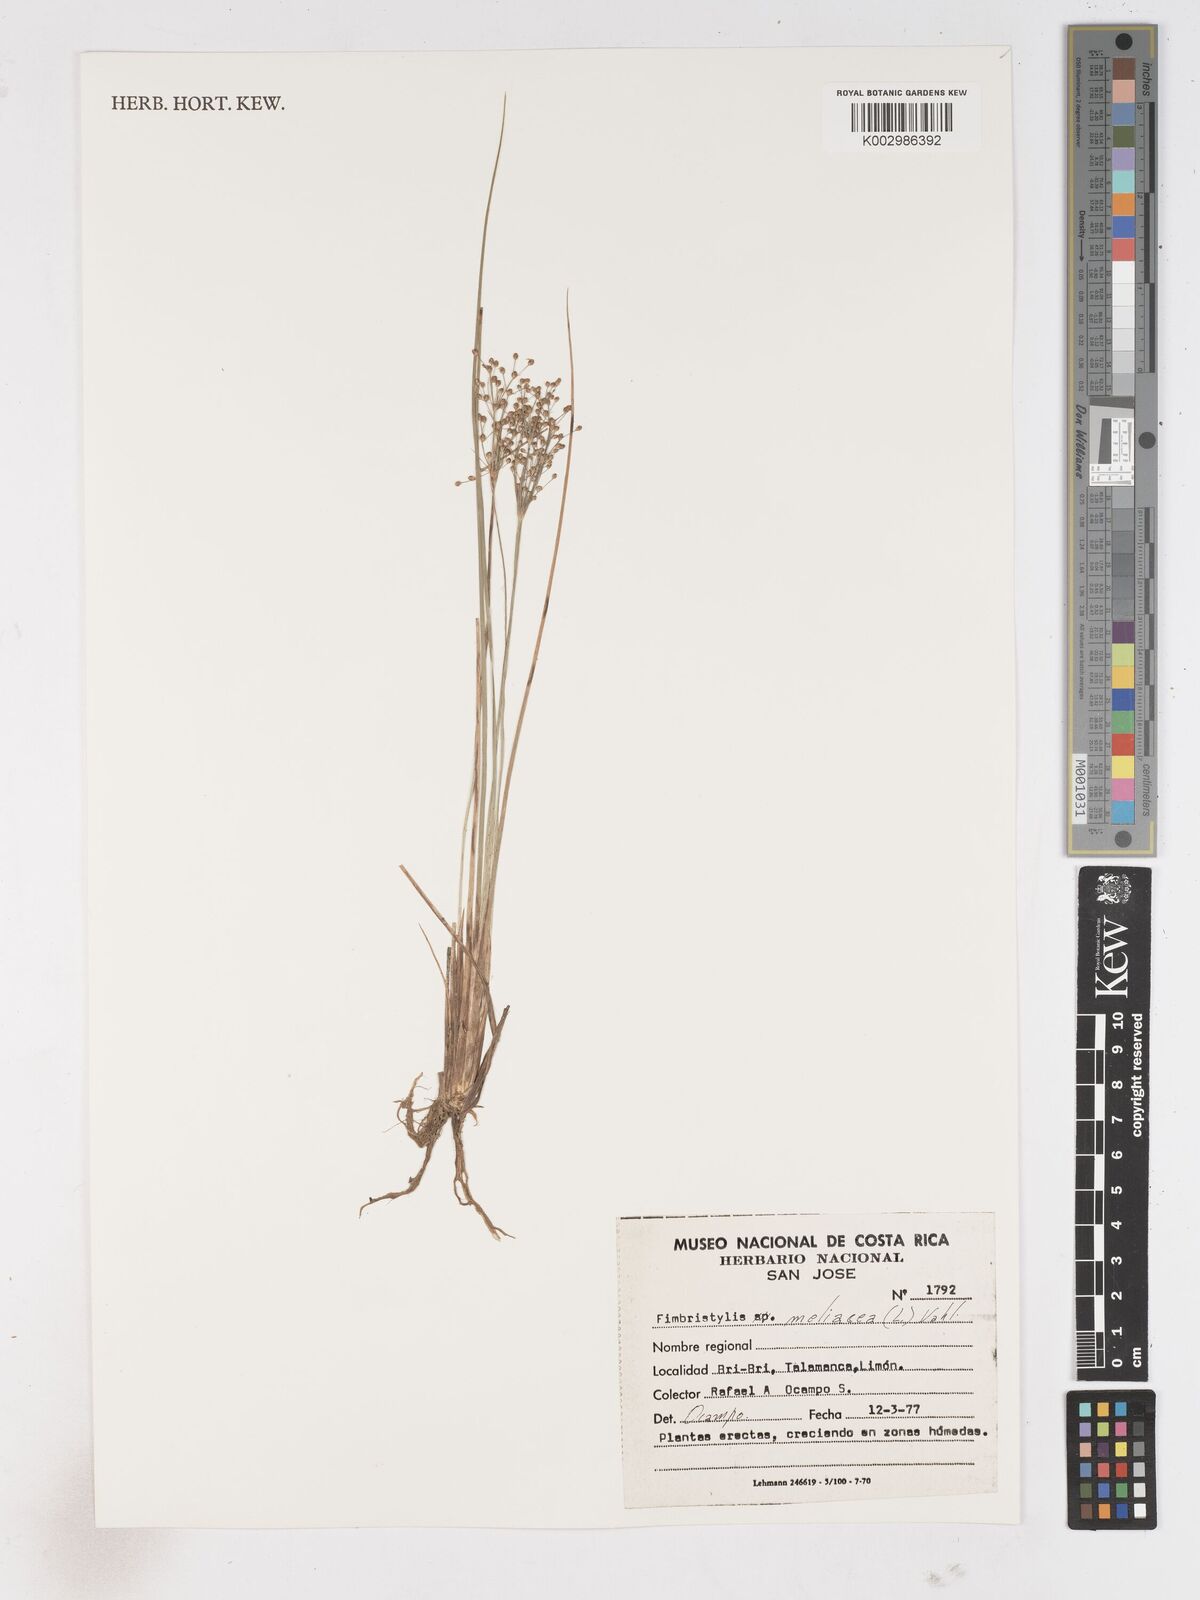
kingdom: Plantae
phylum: Tracheophyta
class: Liliopsida
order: Poales
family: Cyperaceae
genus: Fimbristylis
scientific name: Fimbristylis littoralis
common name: Fimbry
